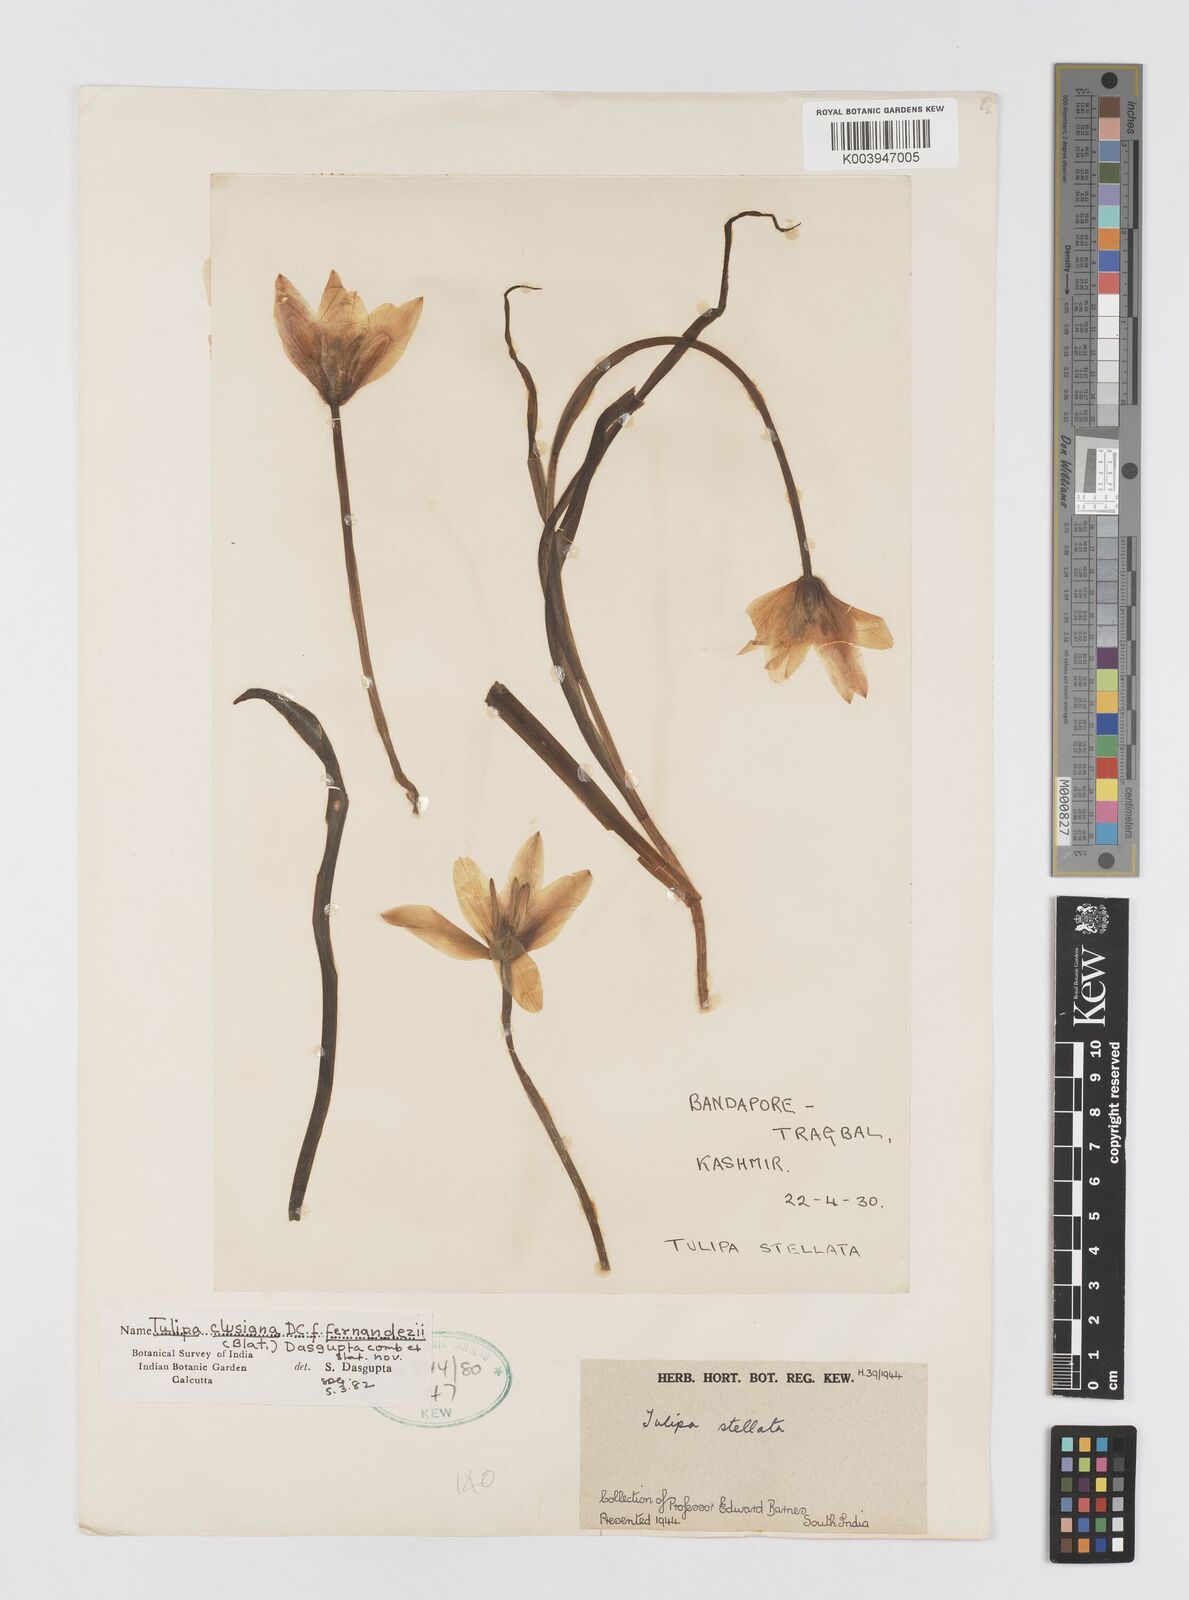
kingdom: Plantae
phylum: Tracheophyta
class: Liliopsida
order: Liliales
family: Liliaceae
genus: Tulipa
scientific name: Tulipa clusiana
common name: Lady tulip
